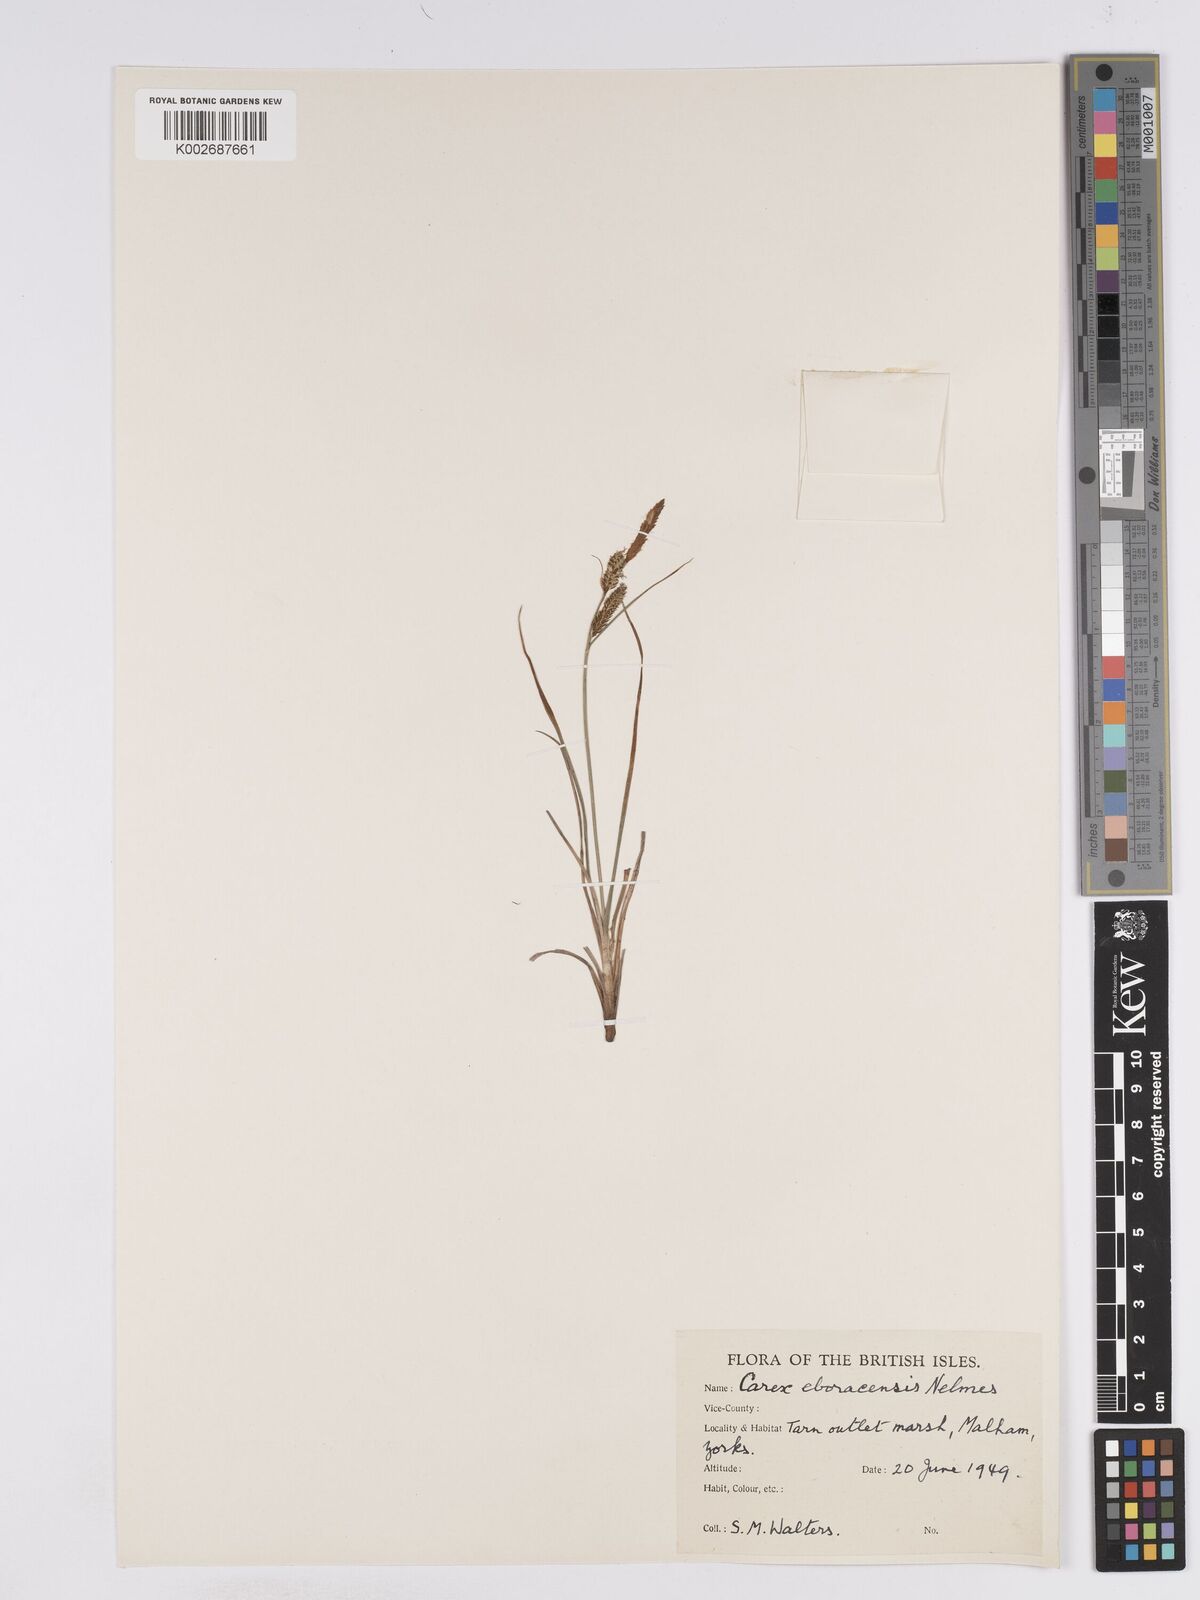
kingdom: Plantae
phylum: Tracheophyta
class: Liliopsida
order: Poales
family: Cyperaceae
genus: Carex
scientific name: Carex nigra
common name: Common sedge
